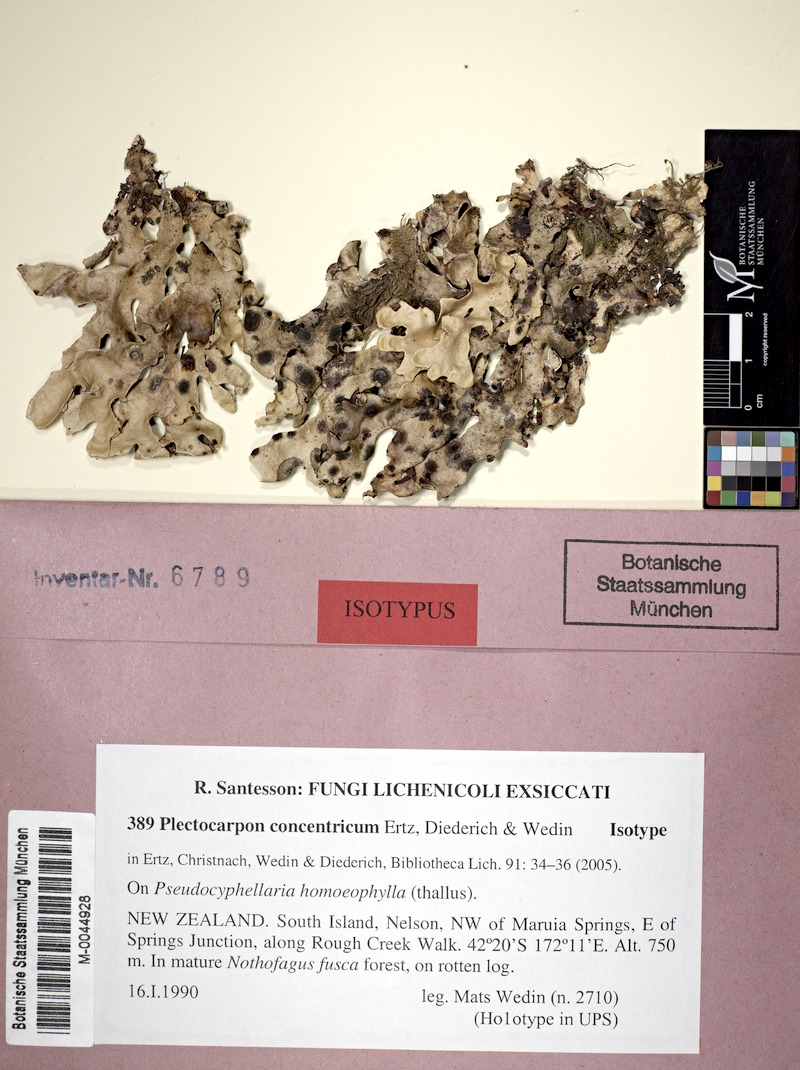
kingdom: Fungi
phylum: Ascomycota
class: Arthoniomycetes
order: Arthoniales
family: Lecanographaceae
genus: Plectocarpon
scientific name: Plectocarpon concentricum
